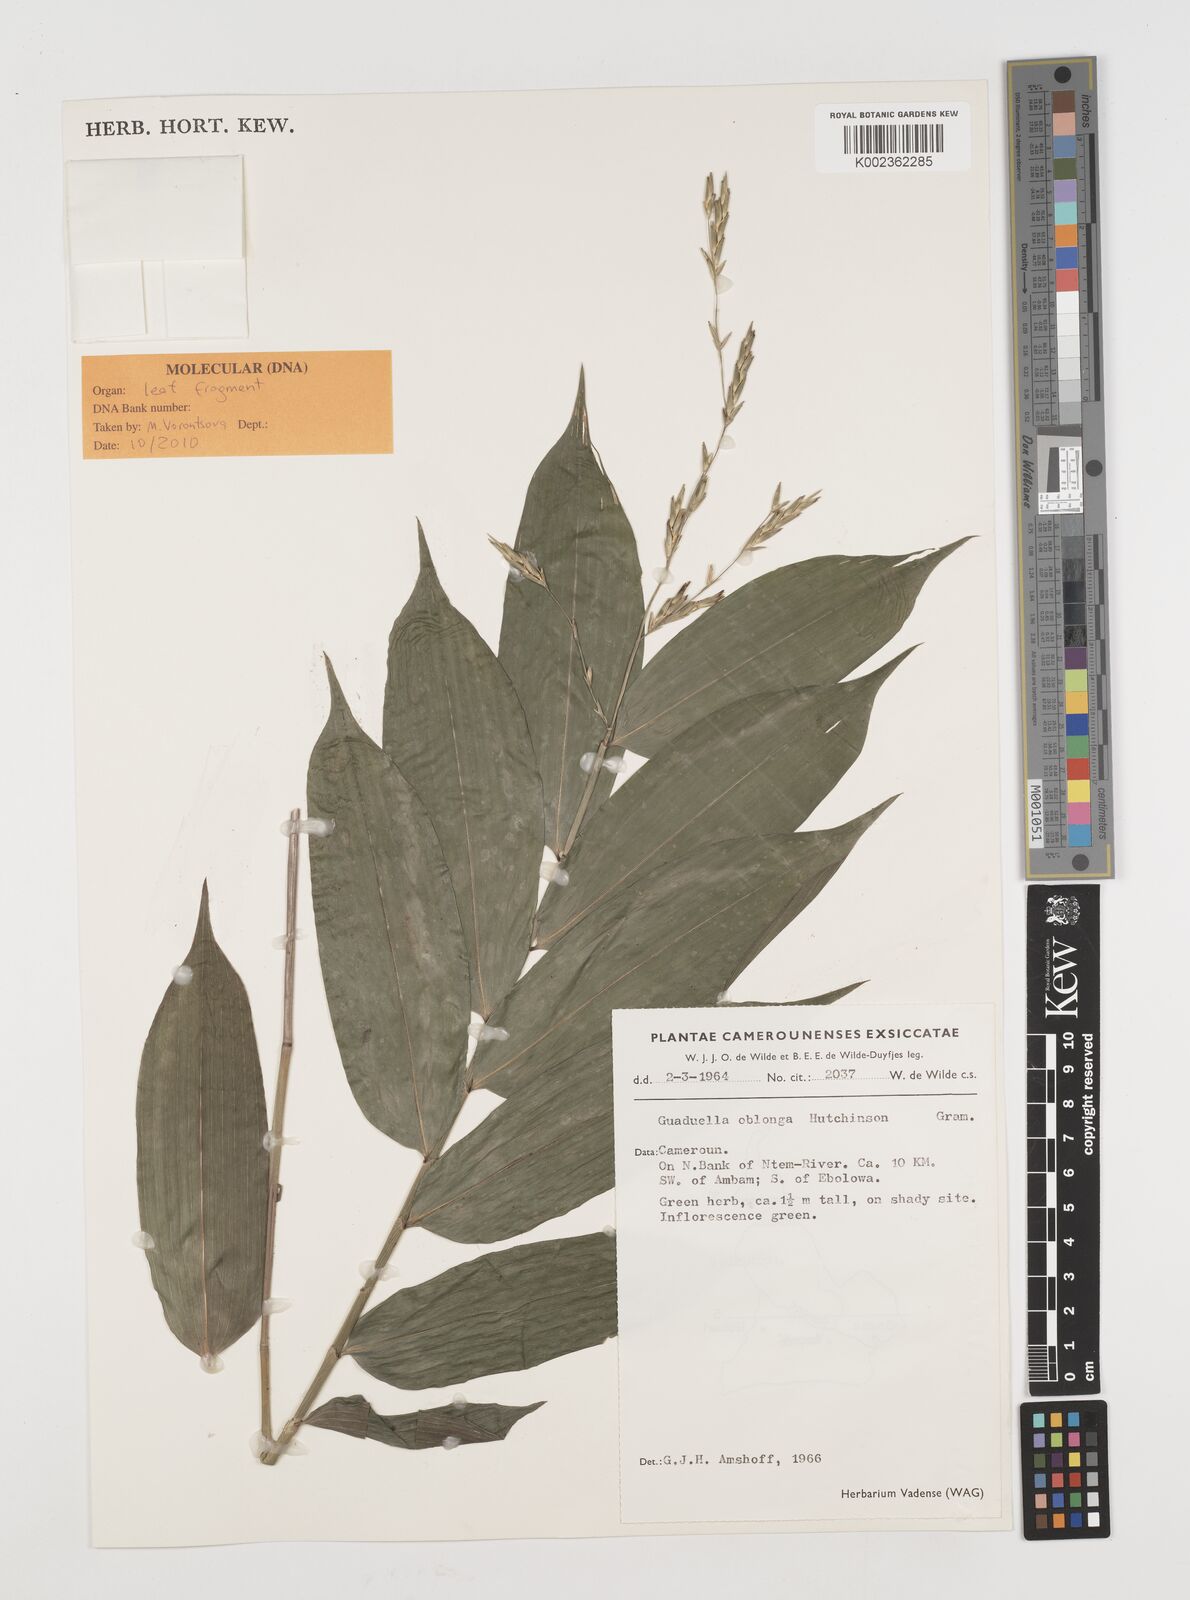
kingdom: Plantae
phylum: Tracheophyta
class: Liliopsida
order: Poales
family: Poaceae
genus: Guaduella
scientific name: Guaduella oblonga
